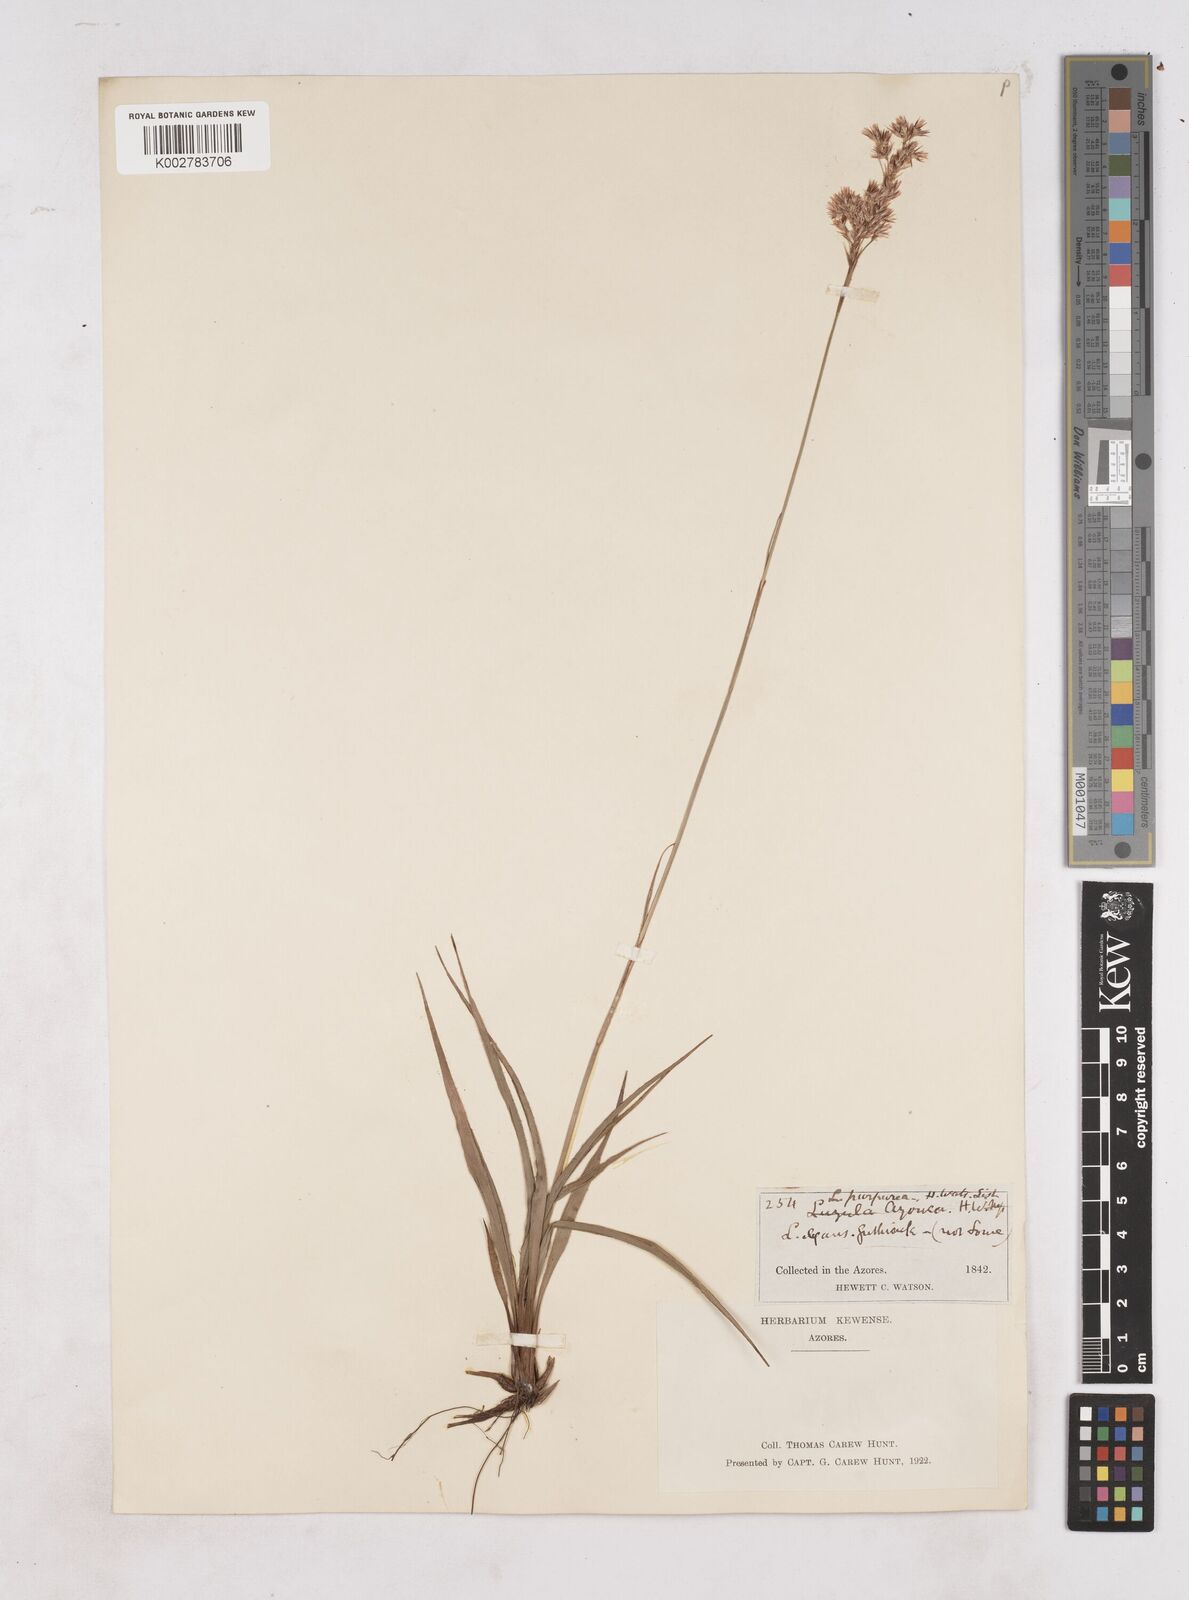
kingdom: Plantae
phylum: Tracheophyta
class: Liliopsida
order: Poales
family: Juncaceae
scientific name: Juncaceae
